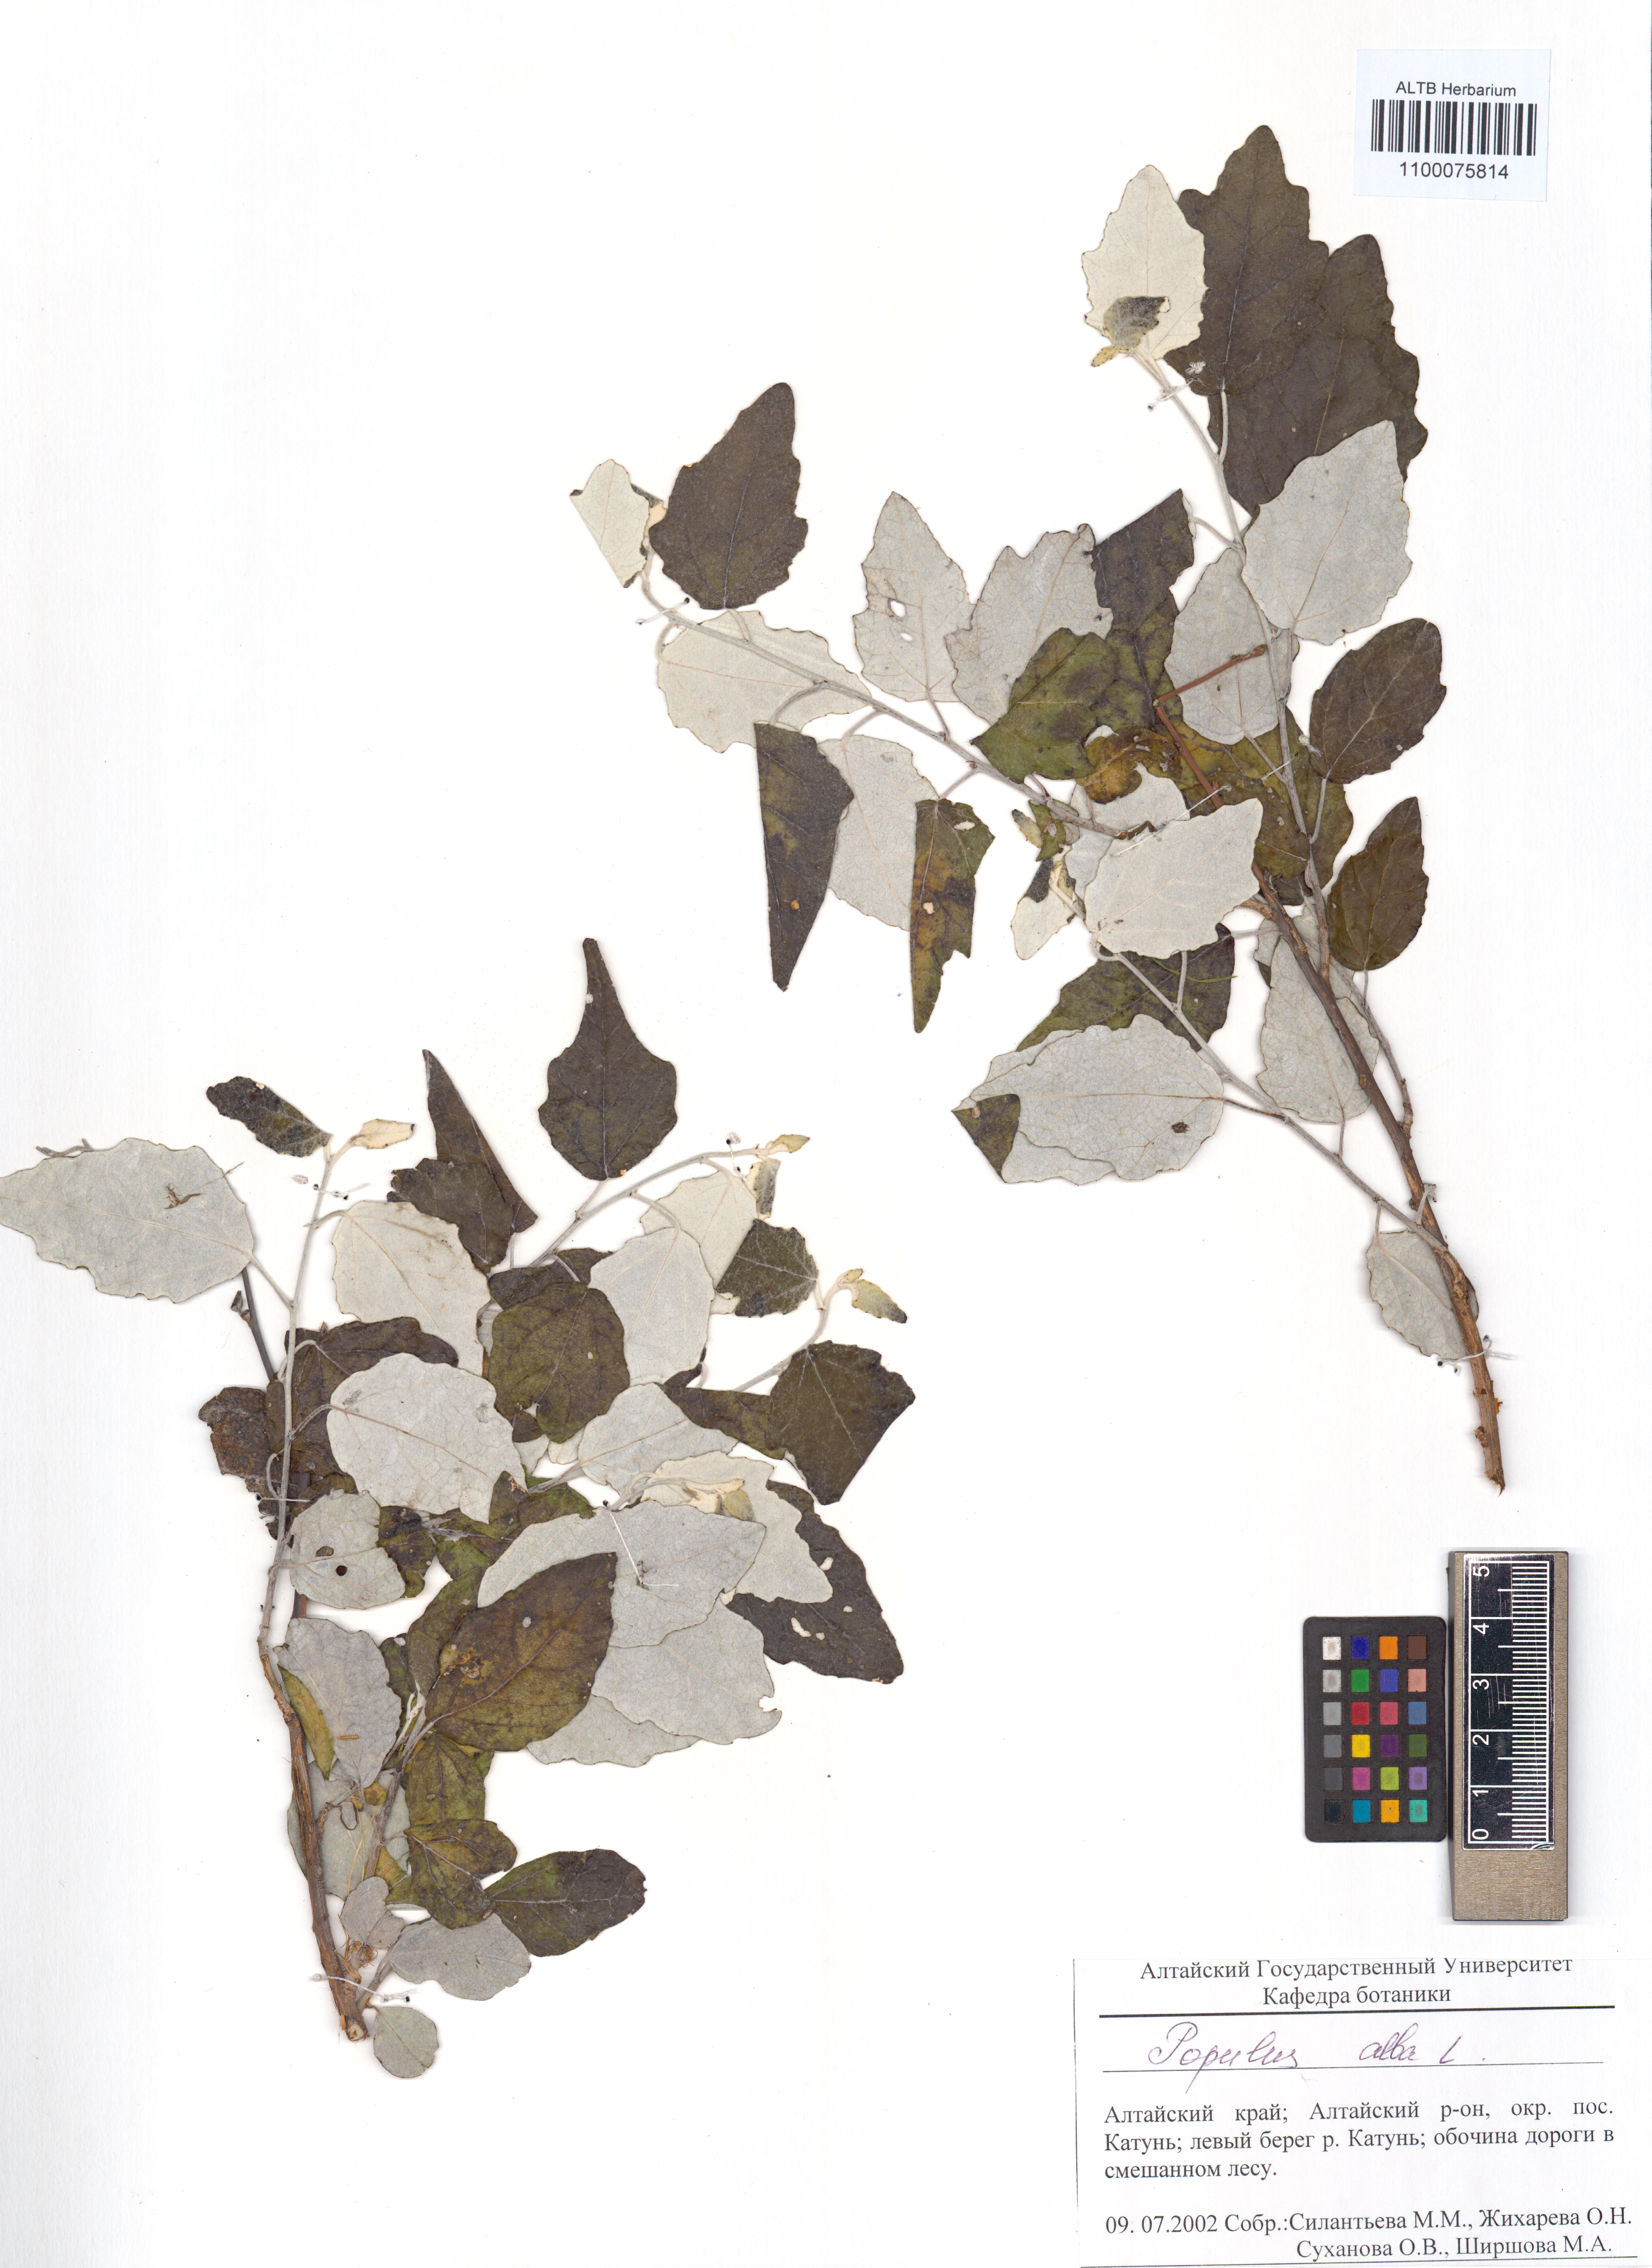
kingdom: Plantae
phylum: Tracheophyta
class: Magnoliopsida
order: Malpighiales
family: Salicaceae
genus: Populus
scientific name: Populus alba
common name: White poplar
